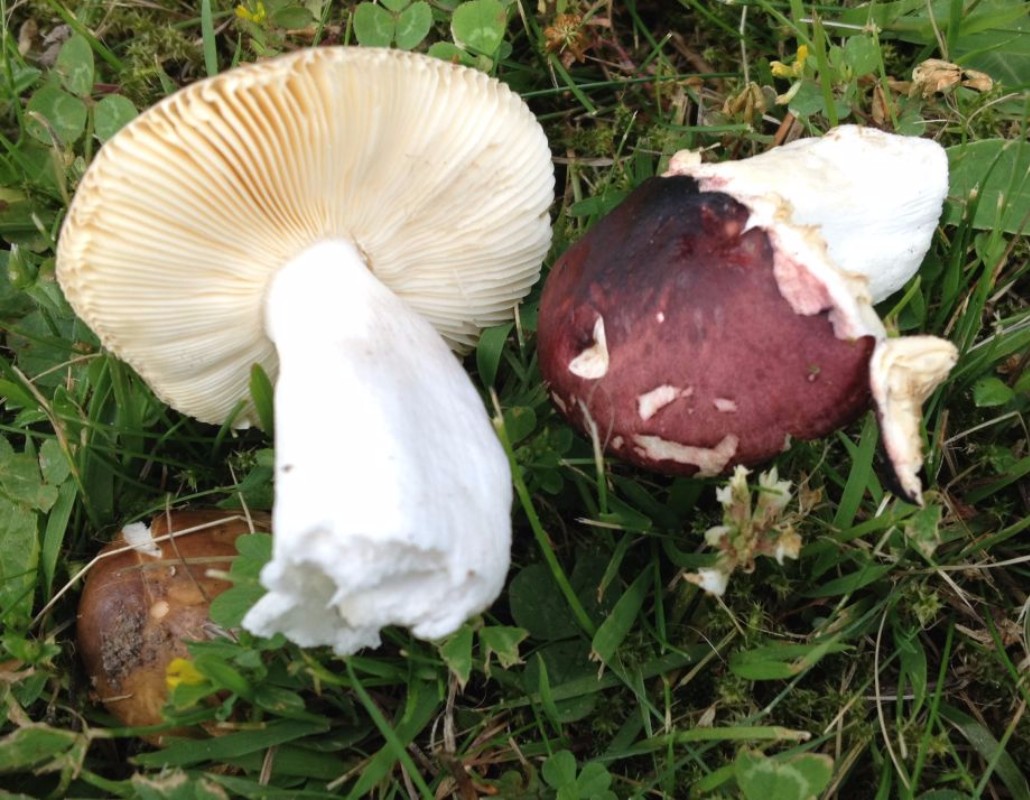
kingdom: Fungi
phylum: Basidiomycota
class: Agaricomycetes
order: Russulales
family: Russulaceae
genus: Russula
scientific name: Russula cessans
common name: fyrre-skørhat
